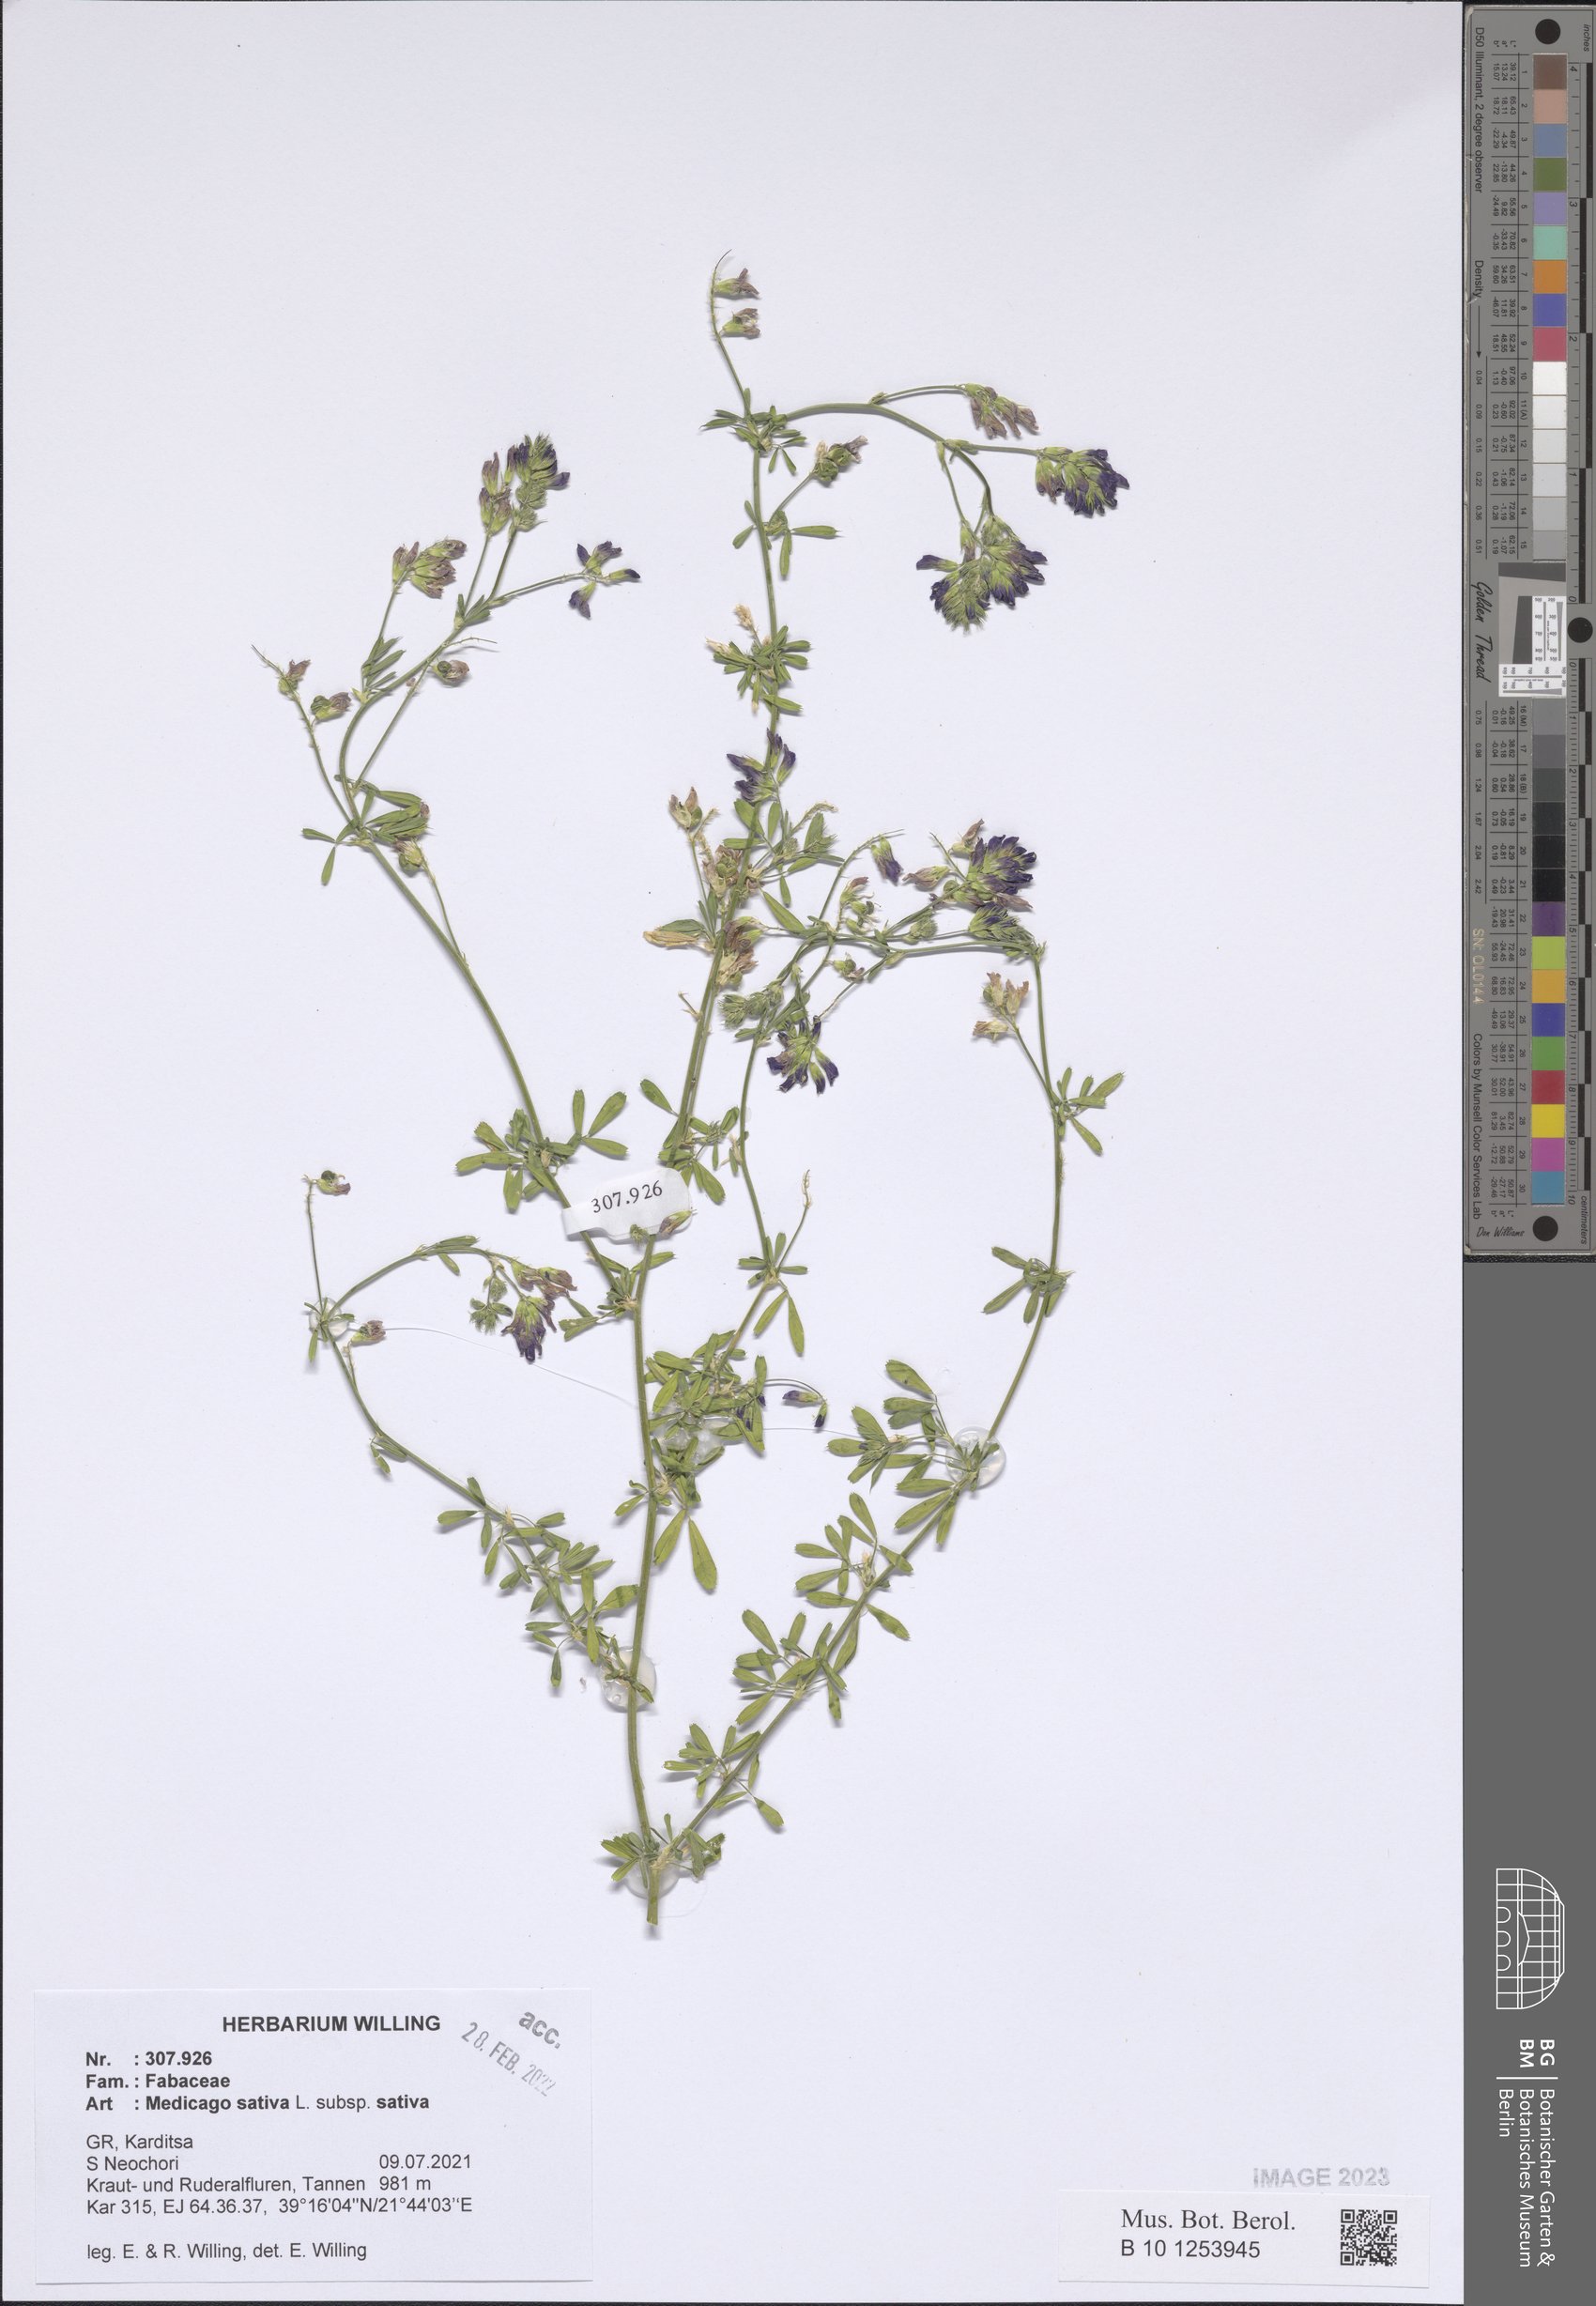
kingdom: Plantae
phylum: Tracheophyta
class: Magnoliopsida
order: Fabales
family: Fabaceae
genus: Medicago
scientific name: Medicago sativa
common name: Alfalfa
